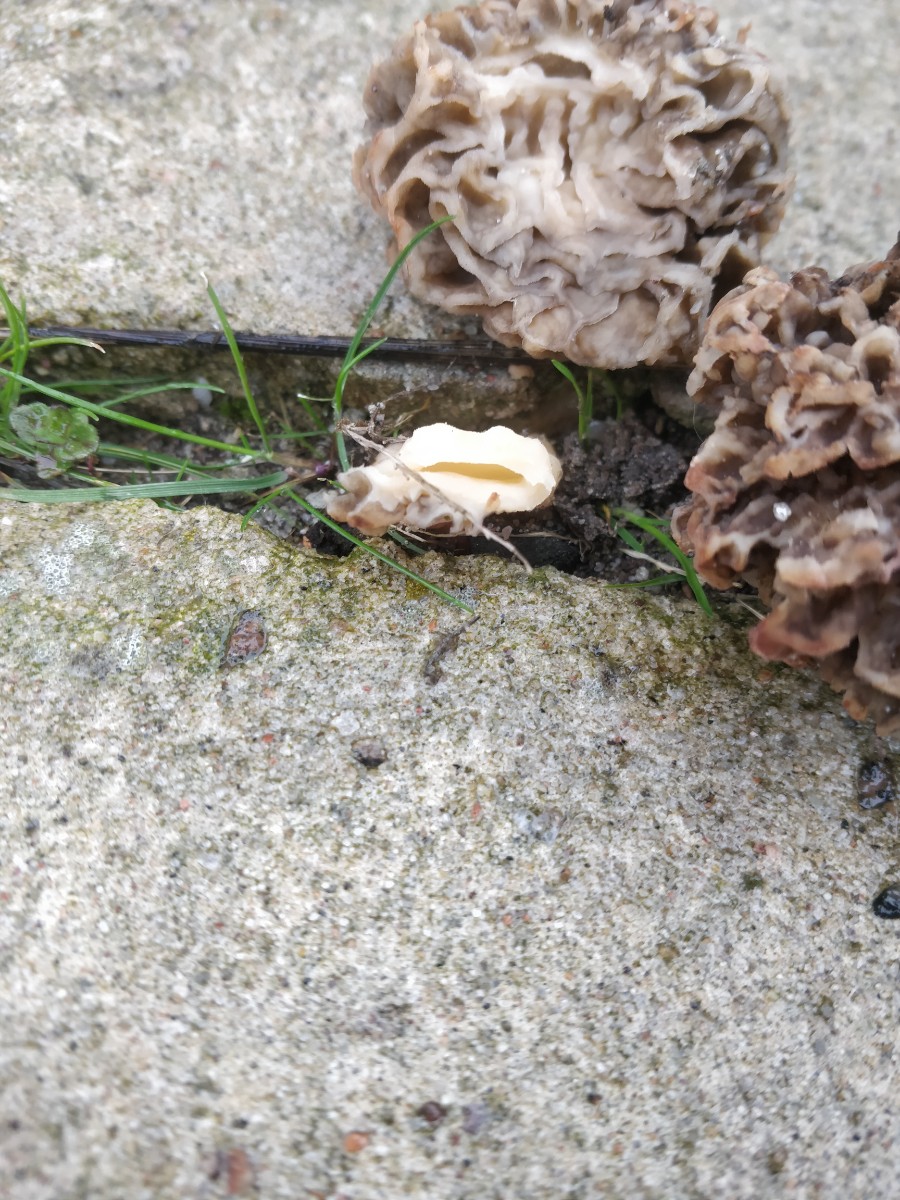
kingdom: Fungi
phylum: Ascomycota
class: Pezizomycetes
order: Pezizales
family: Morchellaceae
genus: Morchella
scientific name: Morchella esculenta
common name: almindelig morkel
